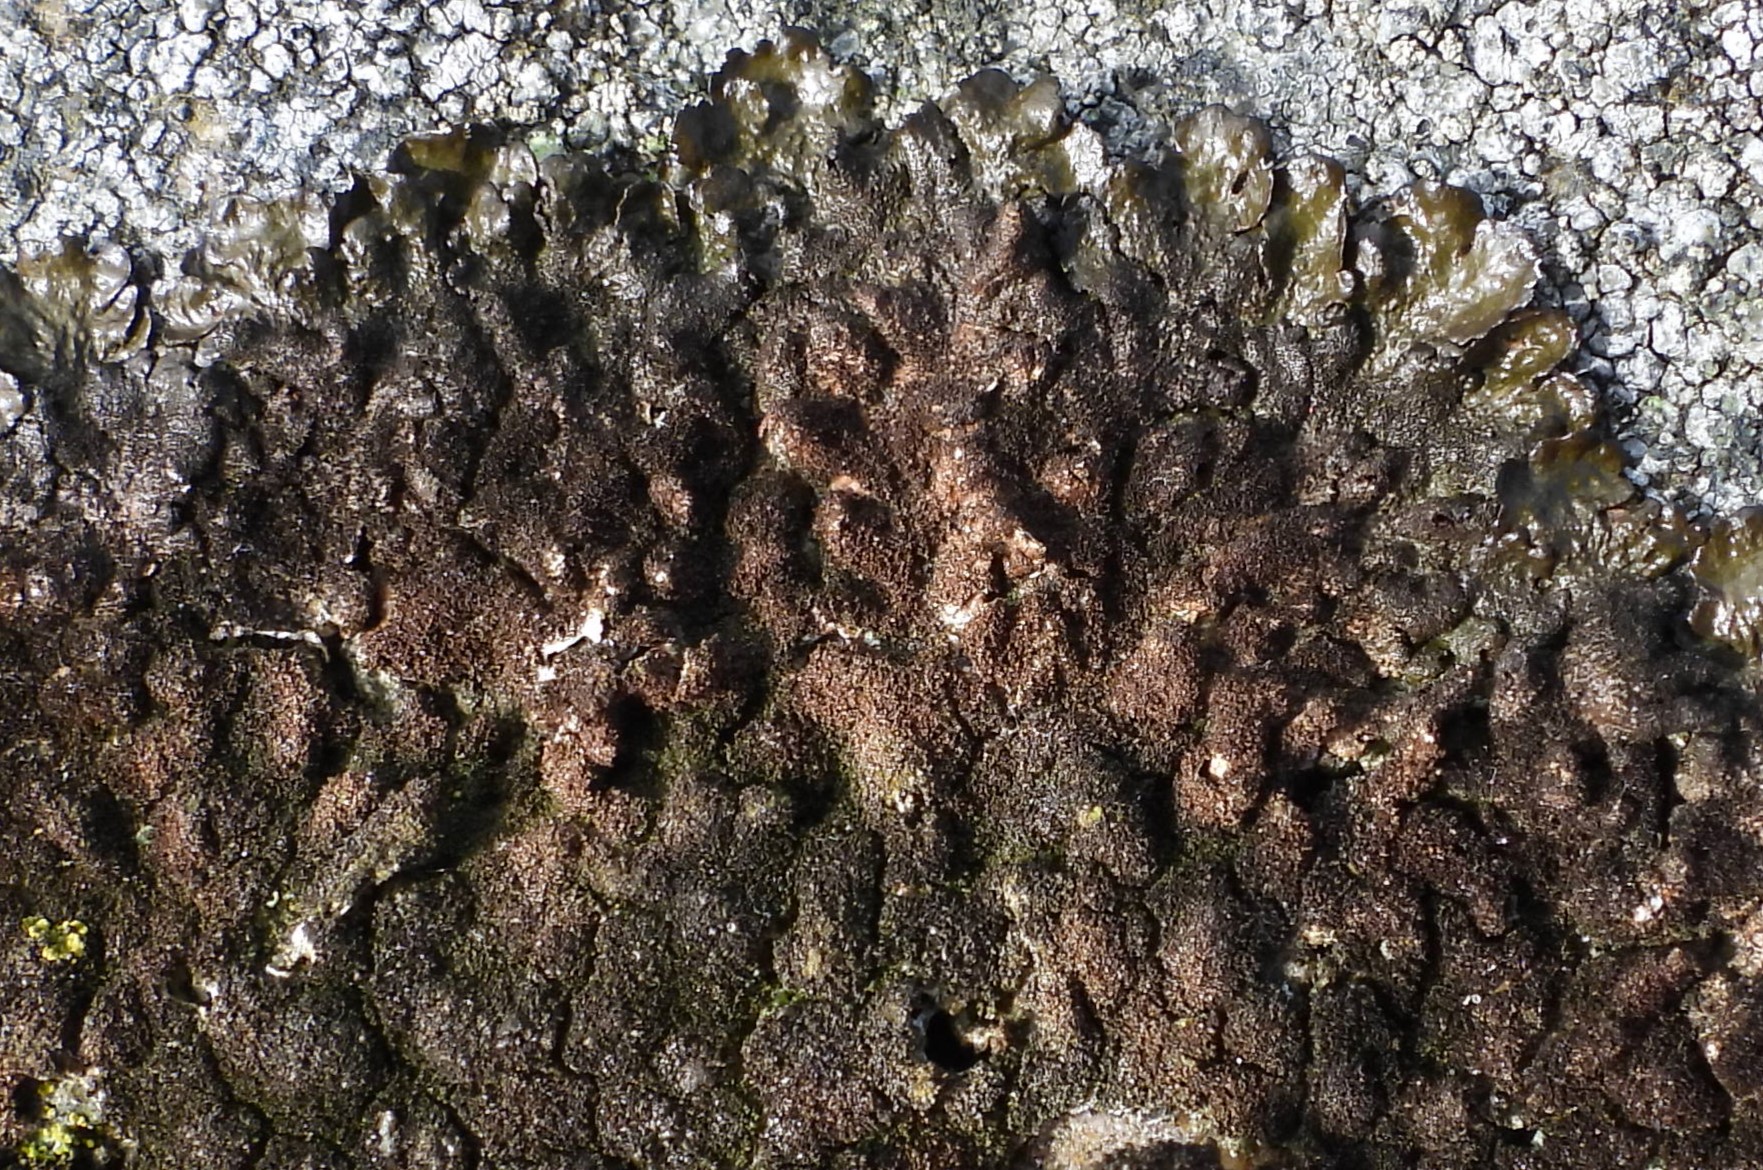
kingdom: Fungi
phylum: Ascomycota
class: Lecanoromycetes
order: Lecanorales
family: Parmeliaceae
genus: Melanelixia
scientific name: Melanelixia fuliginosa
